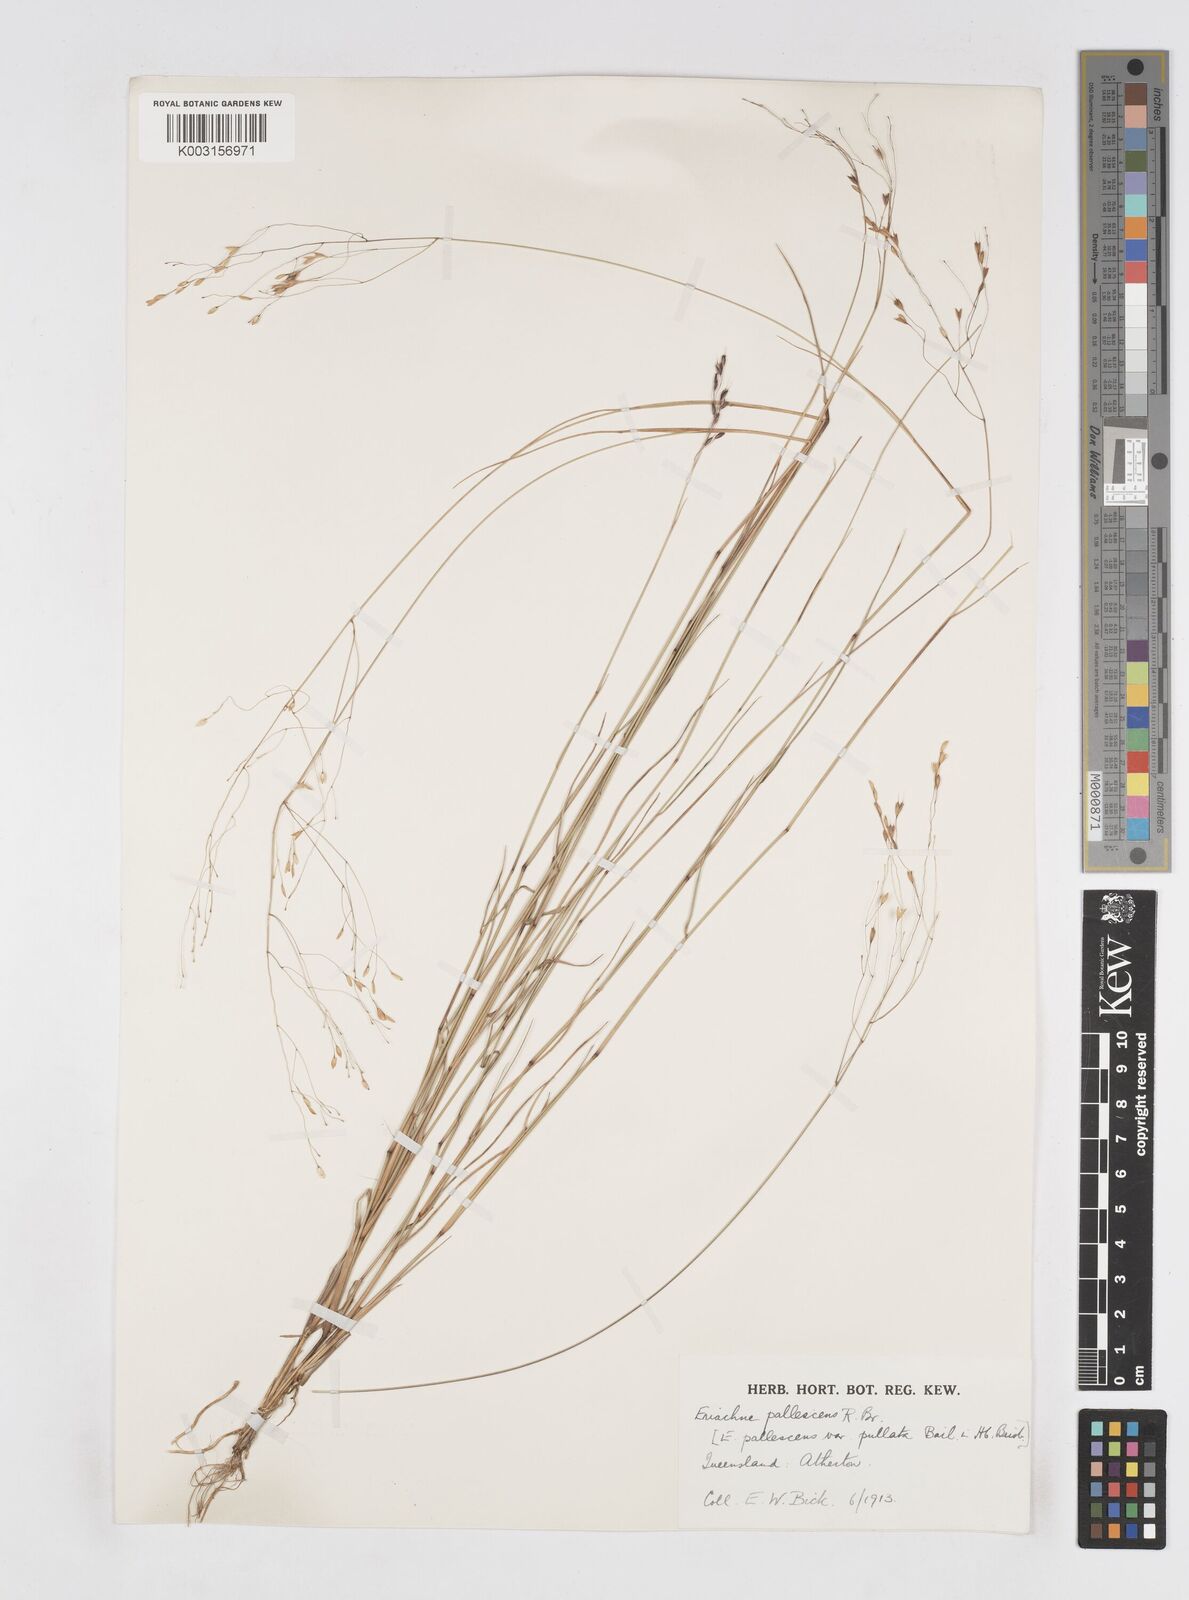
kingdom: Plantae
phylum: Tracheophyta
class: Liliopsida
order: Poales
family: Poaceae
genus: Eriachne
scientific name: Eriachne pallescens
